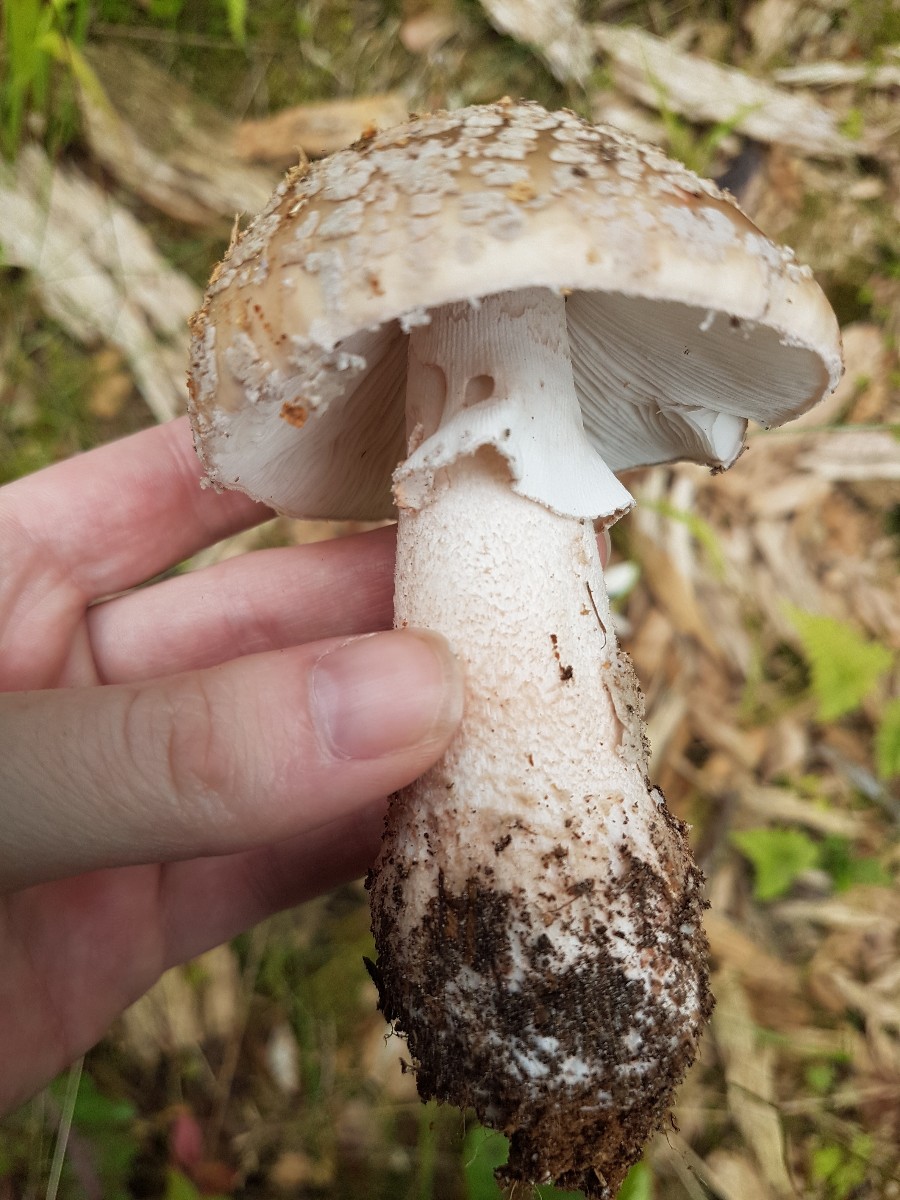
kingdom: Fungi
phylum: Basidiomycota
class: Agaricomycetes
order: Agaricales
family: Amanitaceae
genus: Amanita
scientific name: Amanita rubescens
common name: rødmende fluesvamp
